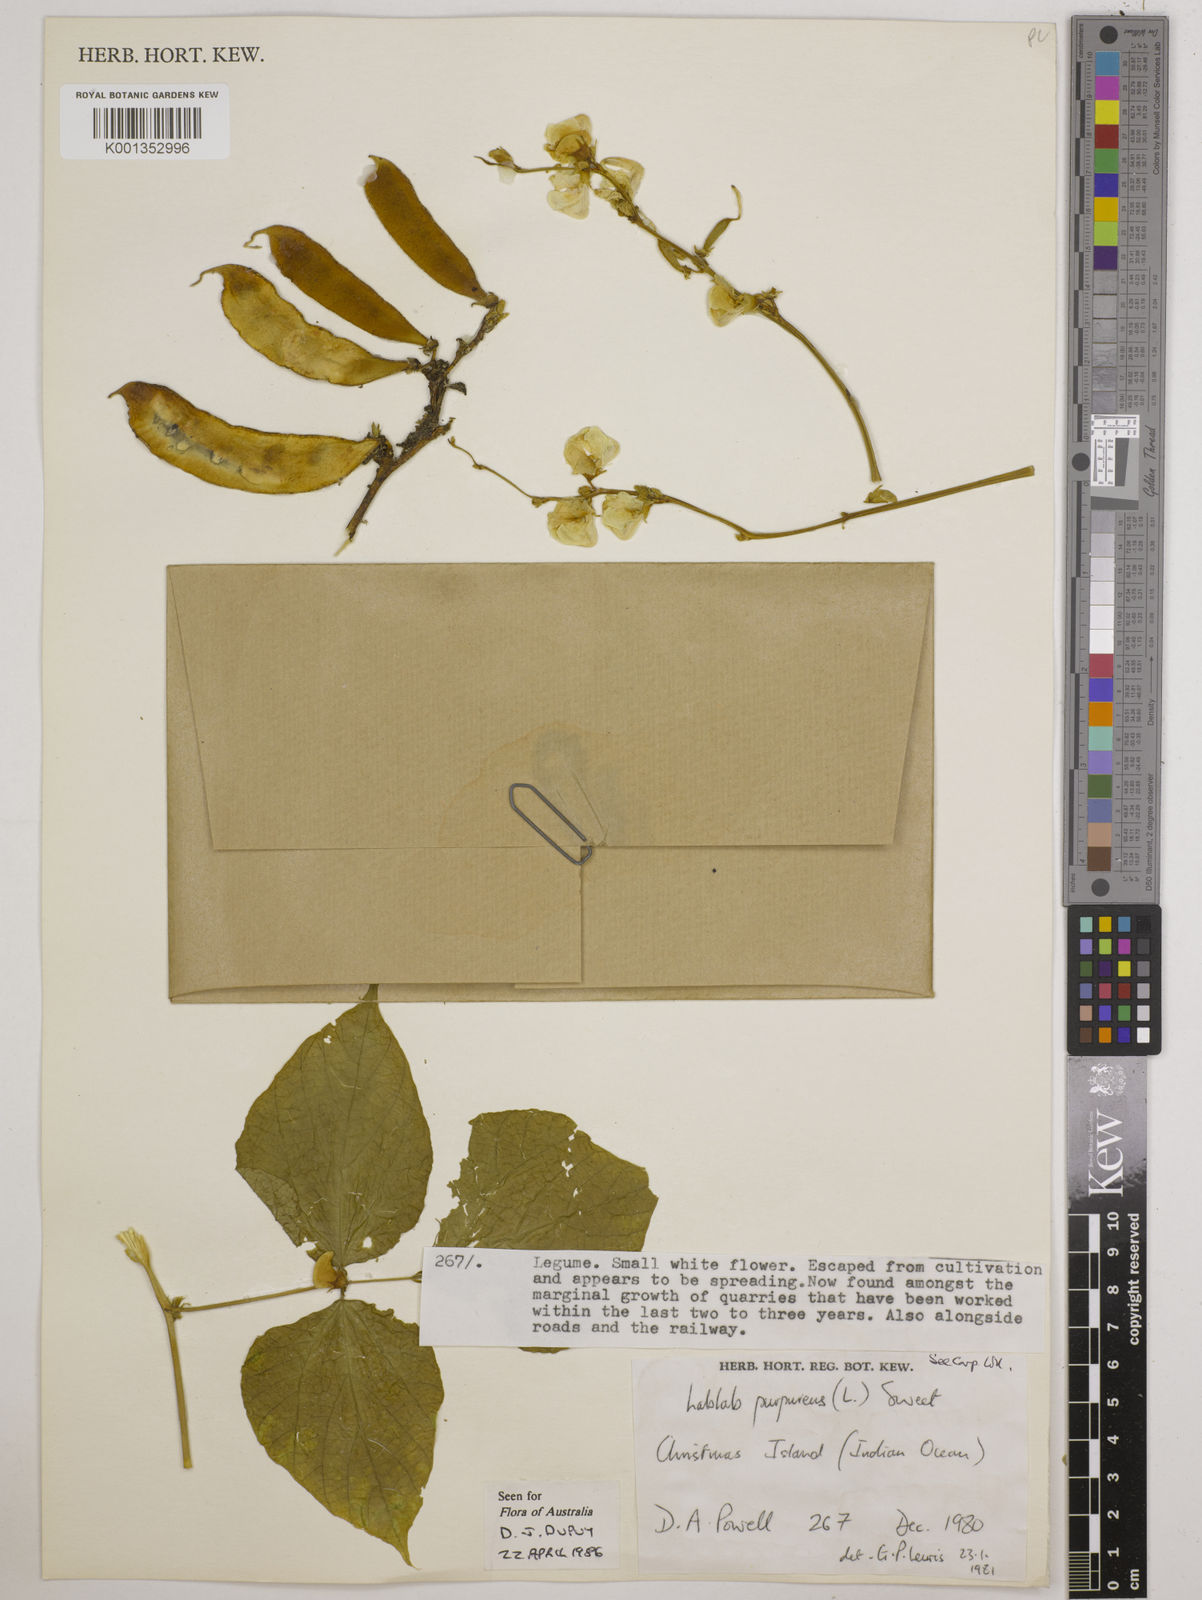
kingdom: Plantae
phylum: Tracheophyta
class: Magnoliopsida
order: Fabales
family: Fabaceae
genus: Lablab
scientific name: Lablab purpureus
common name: Lablab-bean
